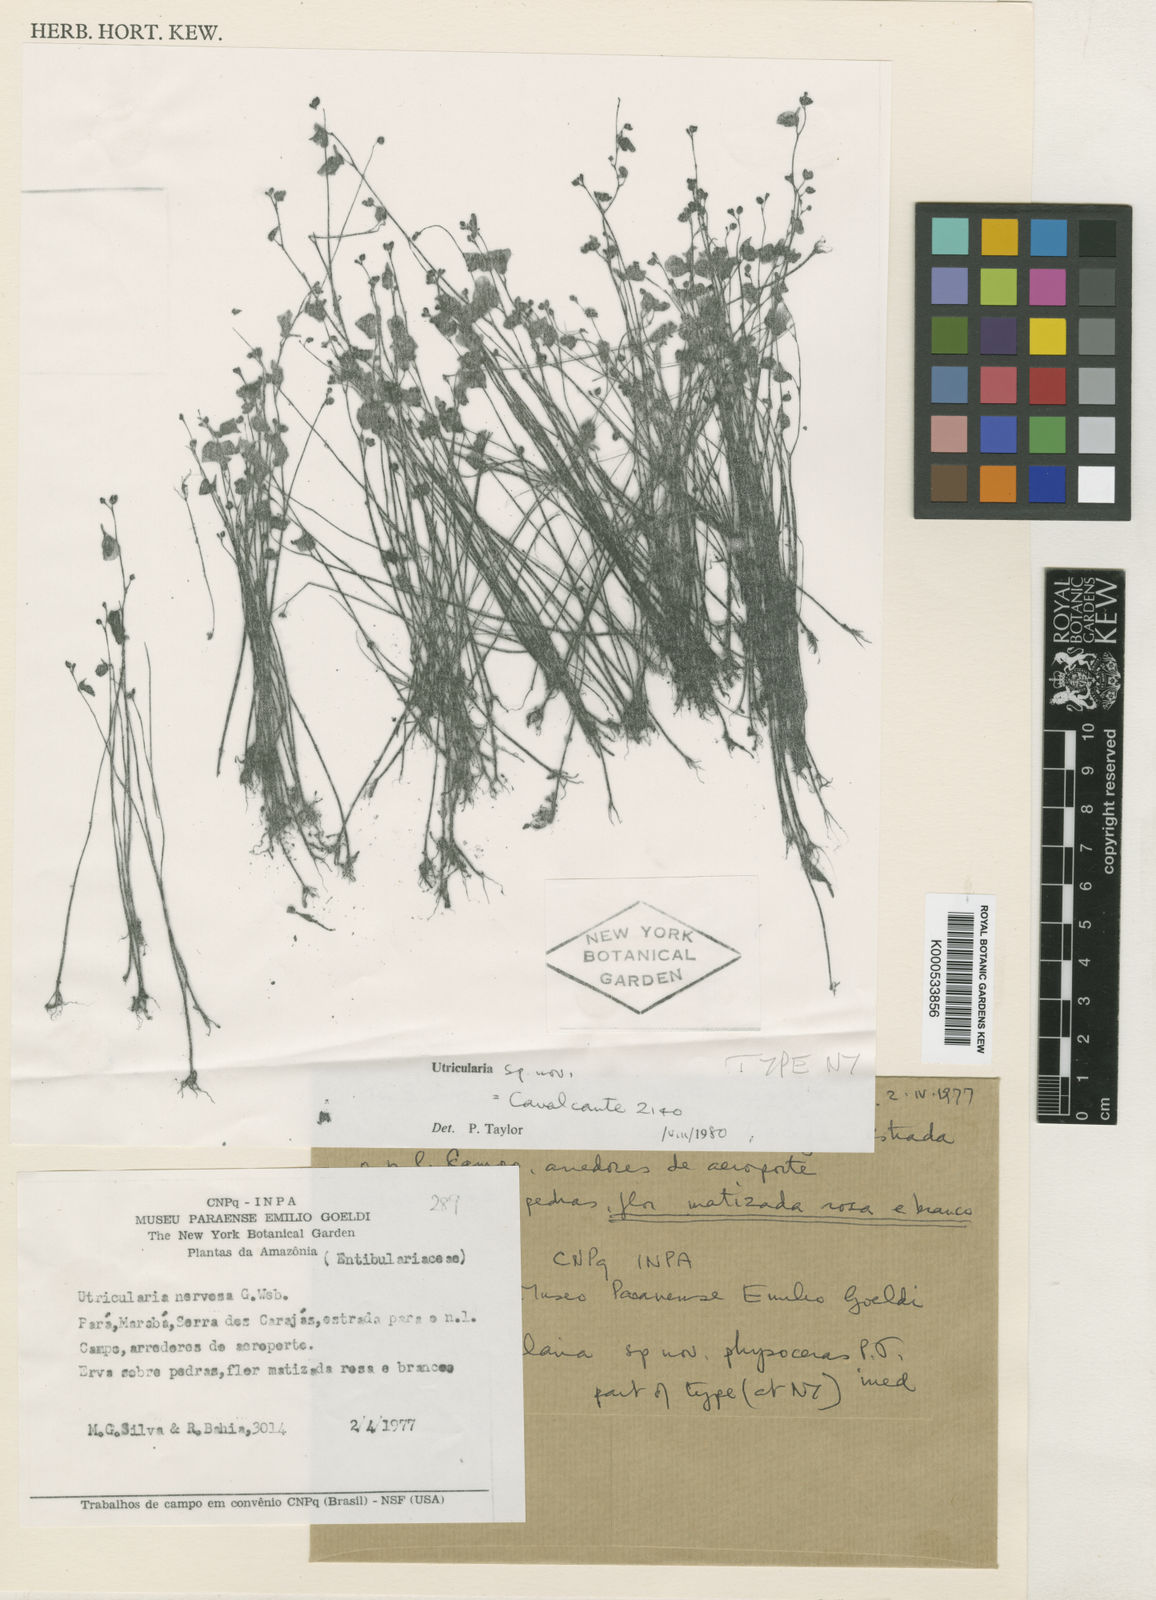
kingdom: Plantae
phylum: Tracheophyta
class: Magnoliopsida
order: Lamiales
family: Lentibulariaceae
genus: Utricularia
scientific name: Utricularia physoceras
